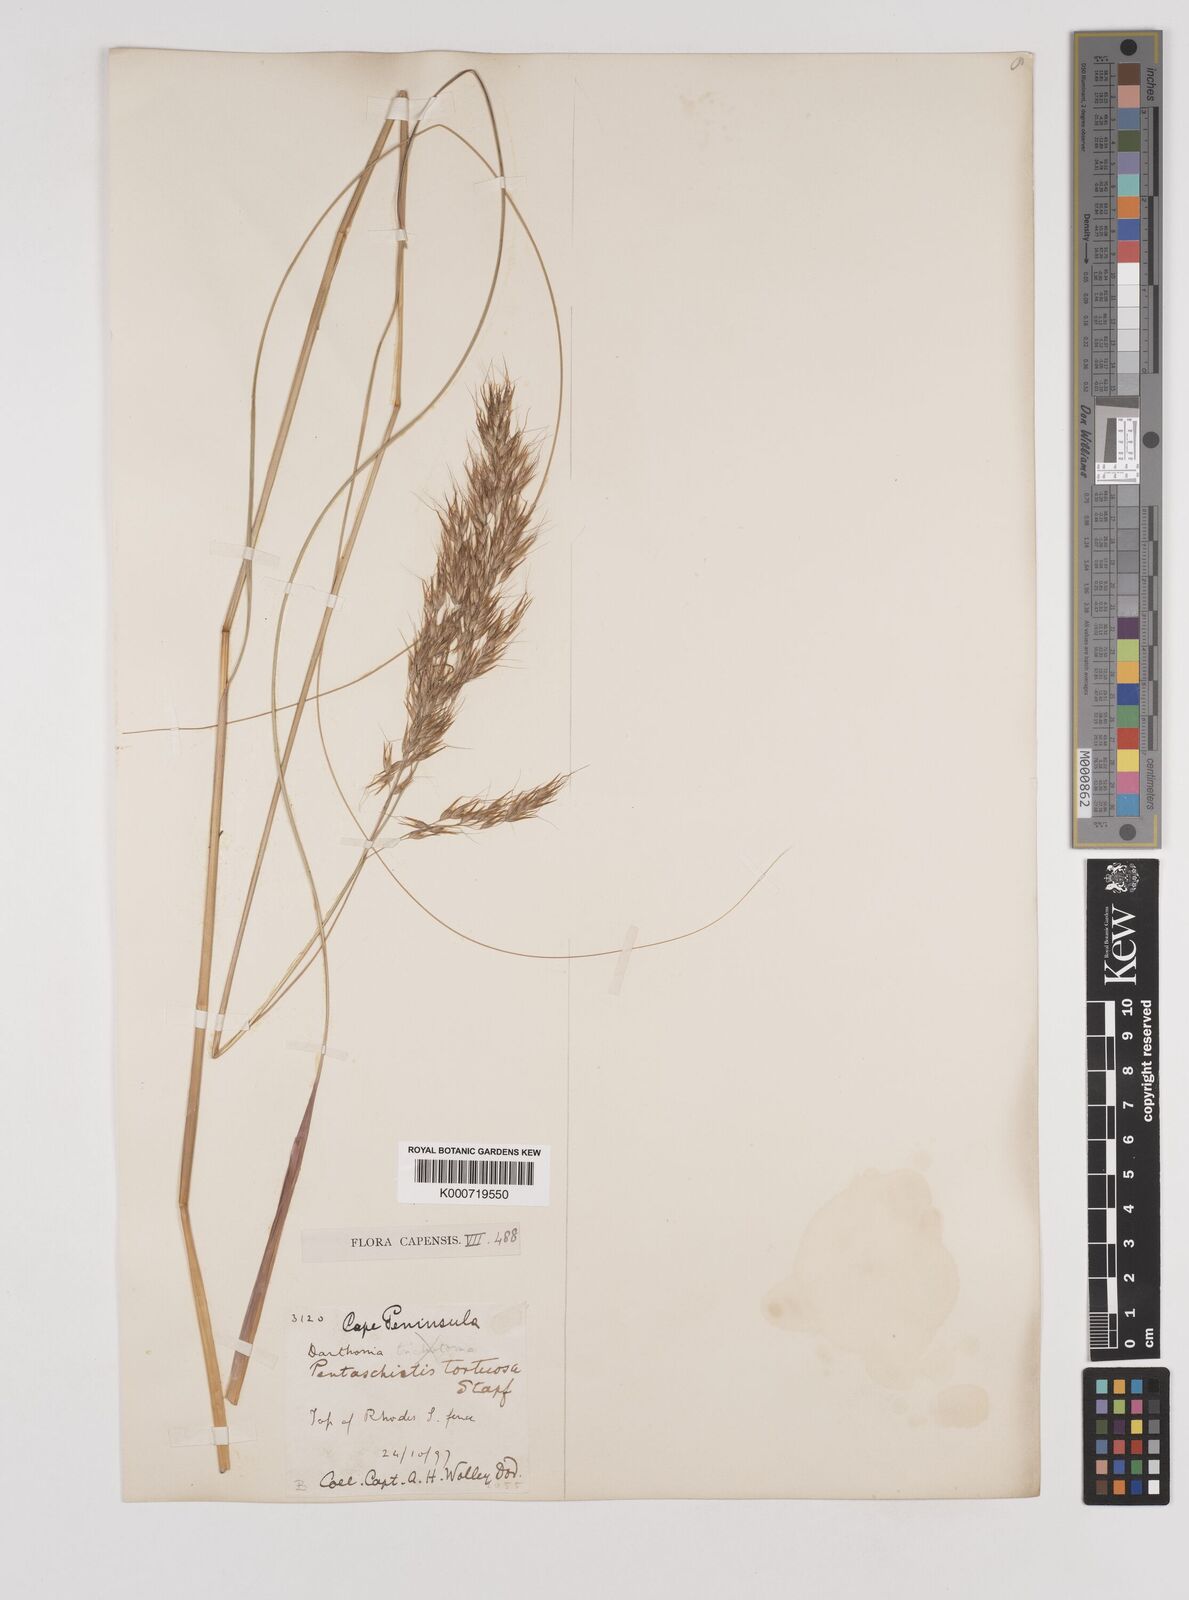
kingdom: Plantae
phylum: Tracheophyta
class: Liliopsida
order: Poales
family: Poaceae
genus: Pentameris
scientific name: Pentameris tortuosa
